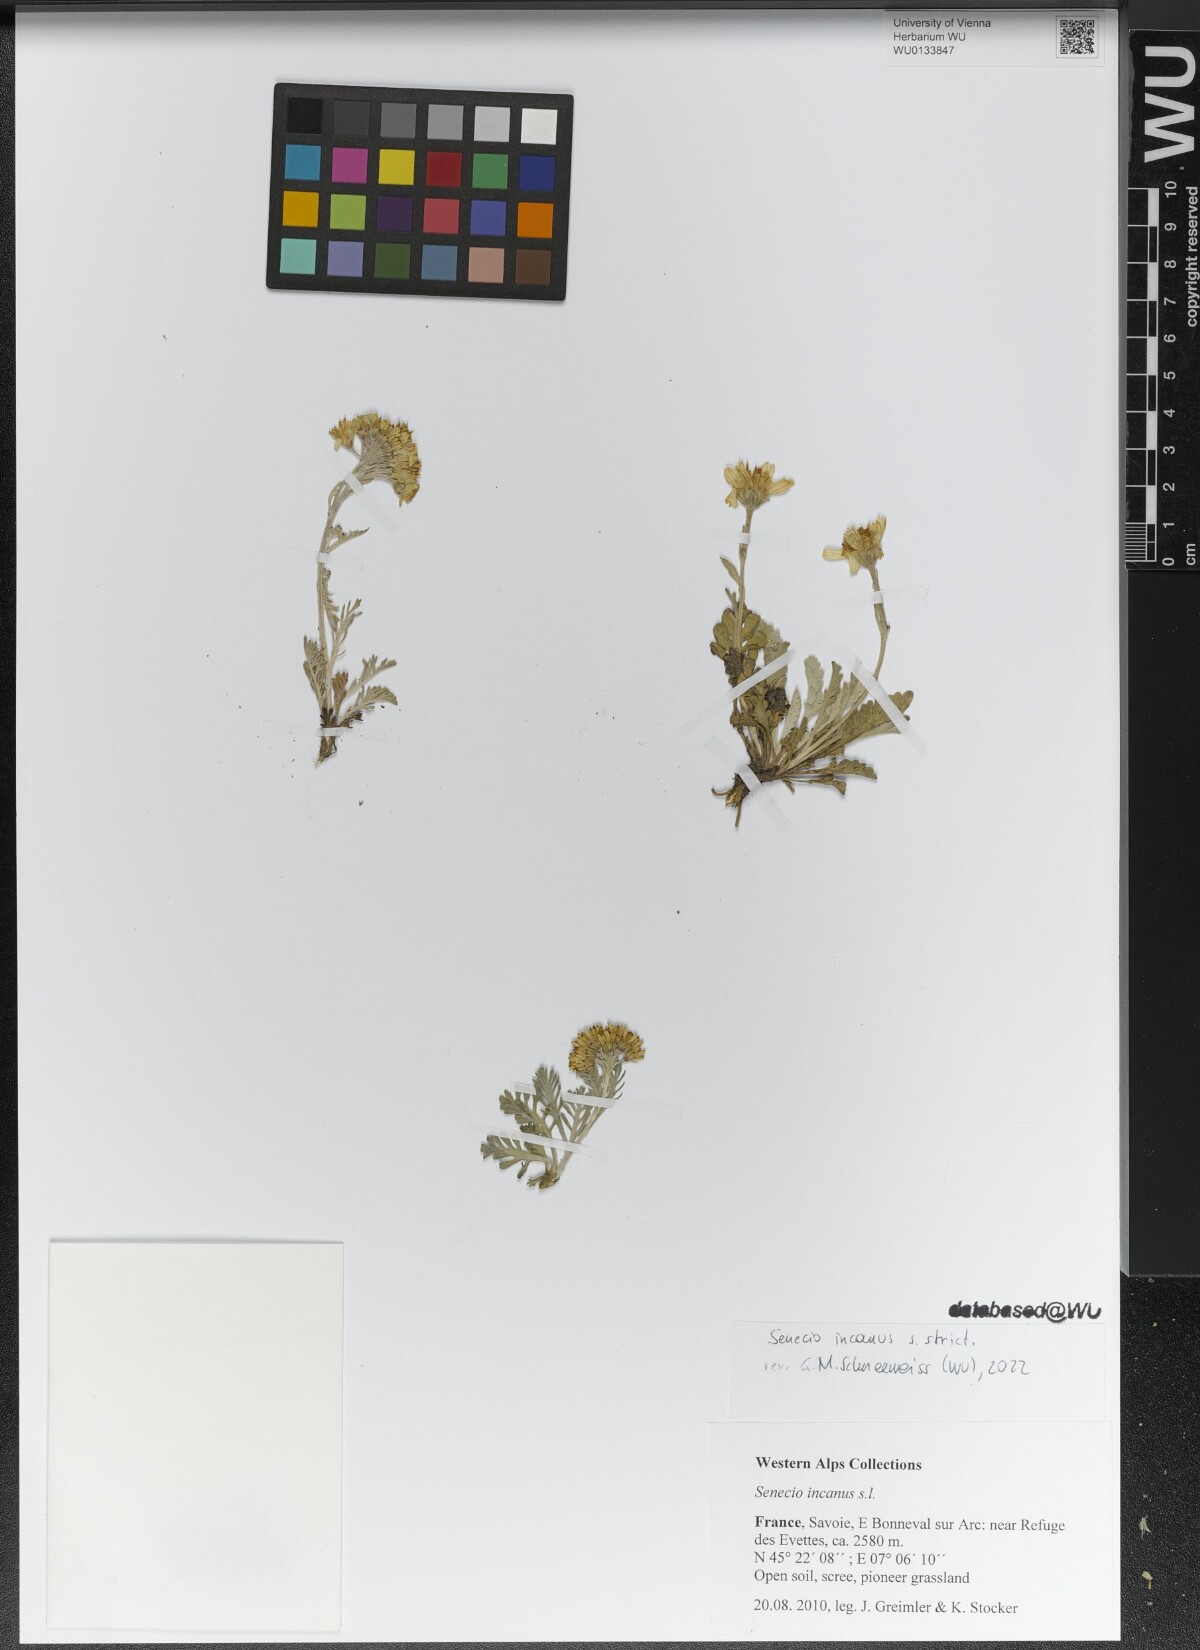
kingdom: Plantae
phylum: Tracheophyta
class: Magnoliopsida
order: Asterales
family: Asteraceae
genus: Jacobaea
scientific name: Jacobaea incana
